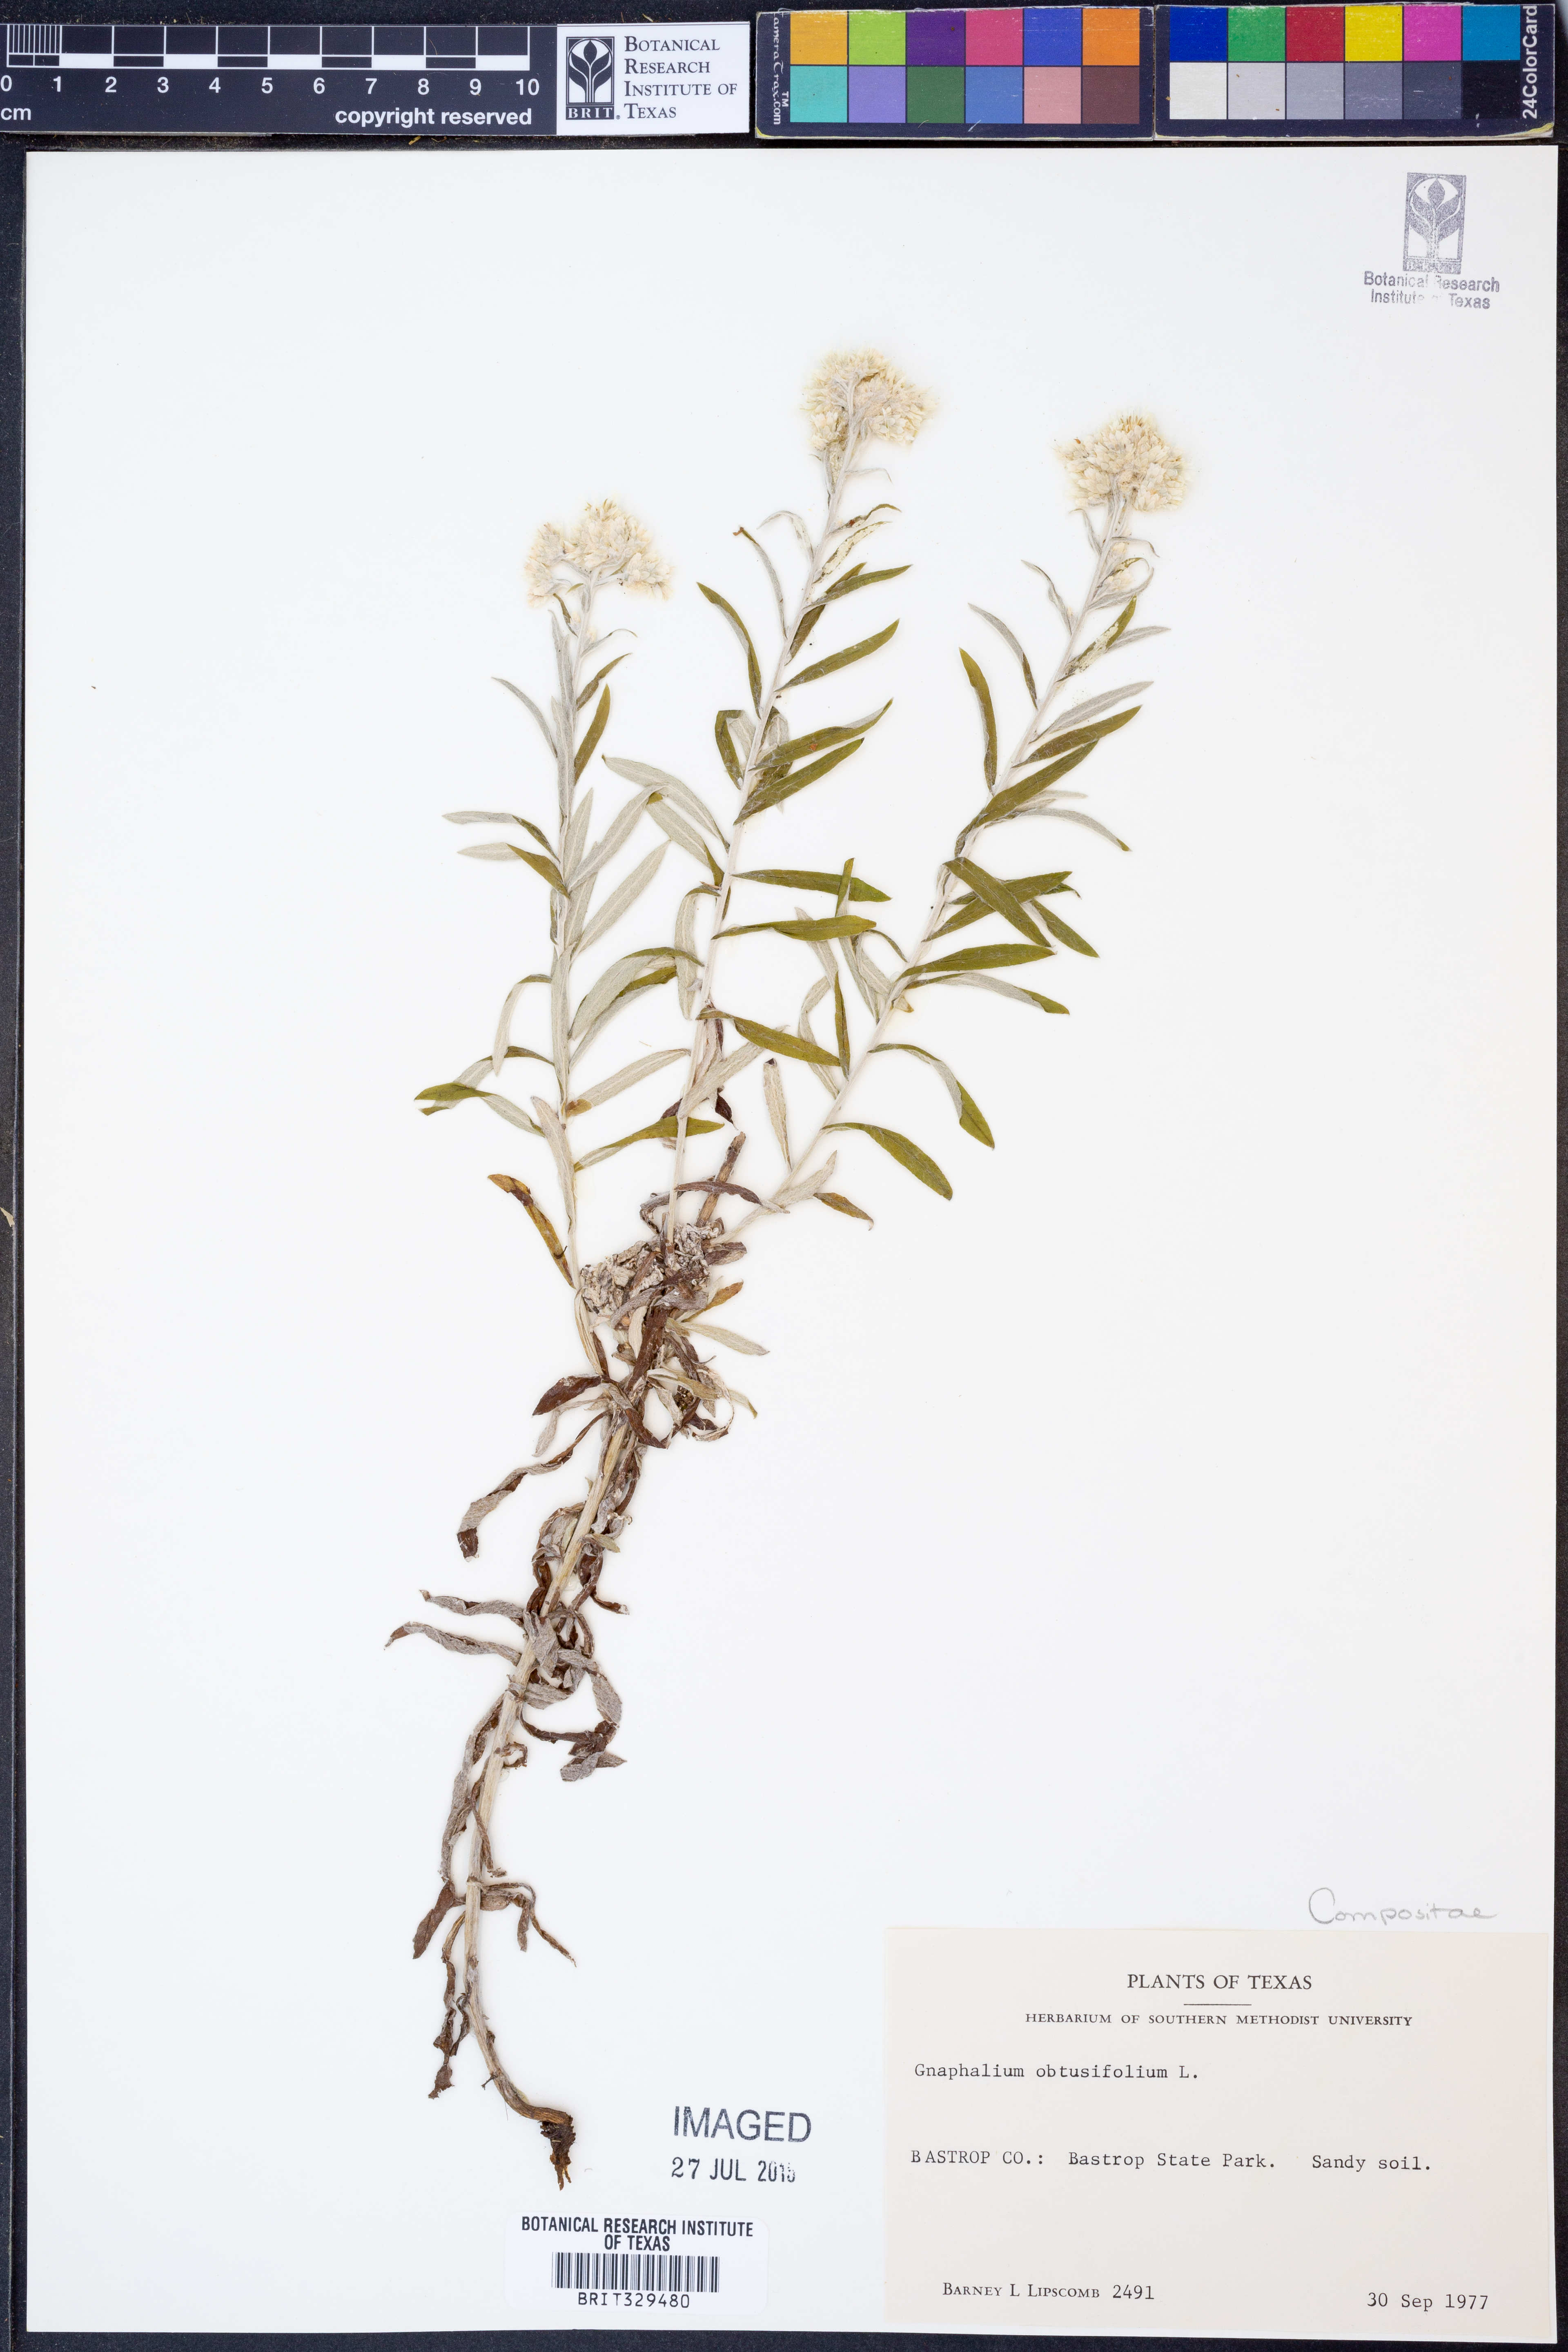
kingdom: Plantae
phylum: Tracheophyta
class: Magnoliopsida
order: Asterales
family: Asteraceae
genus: Pseudognaphalium
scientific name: Pseudognaphalium obtusifolium
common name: Eastern rabbit-tobacco
